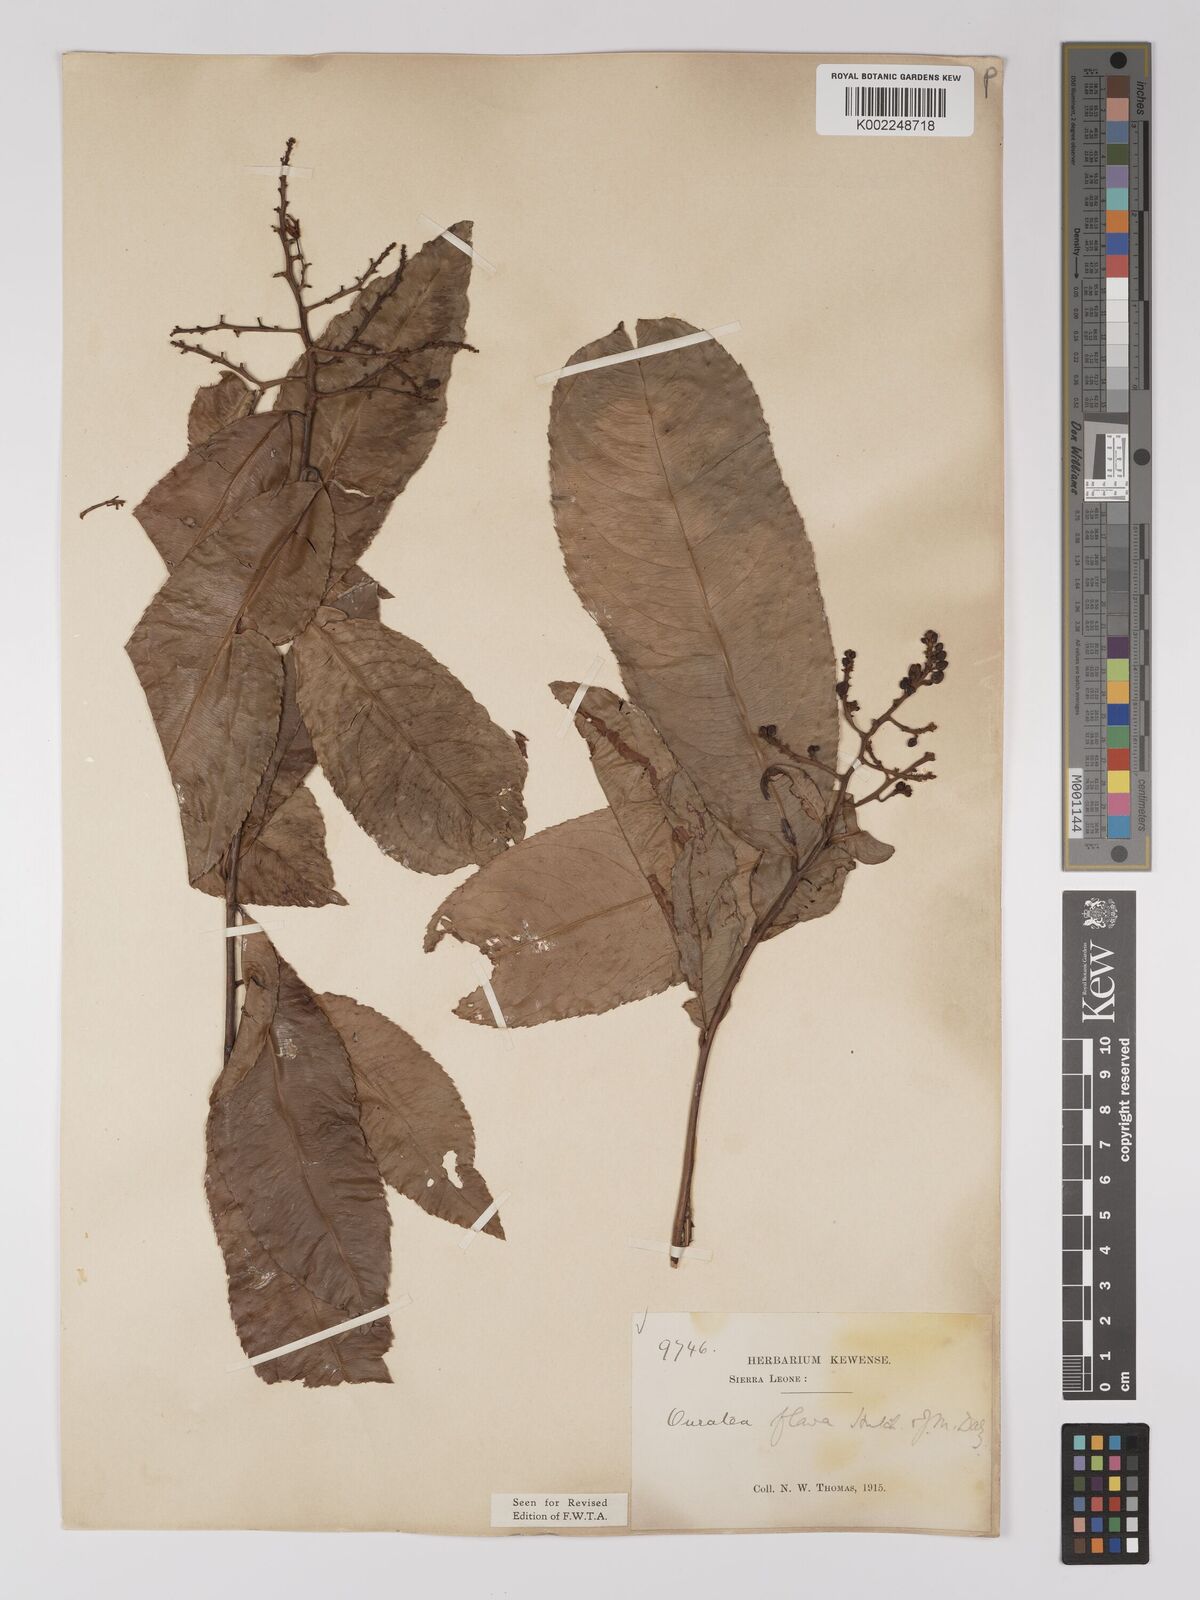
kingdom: Plantae
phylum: Tracheophyta
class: Magnoliopsida
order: Malpighiales
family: Ochnaceae
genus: Campylospermum
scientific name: Campylospermum flavum
